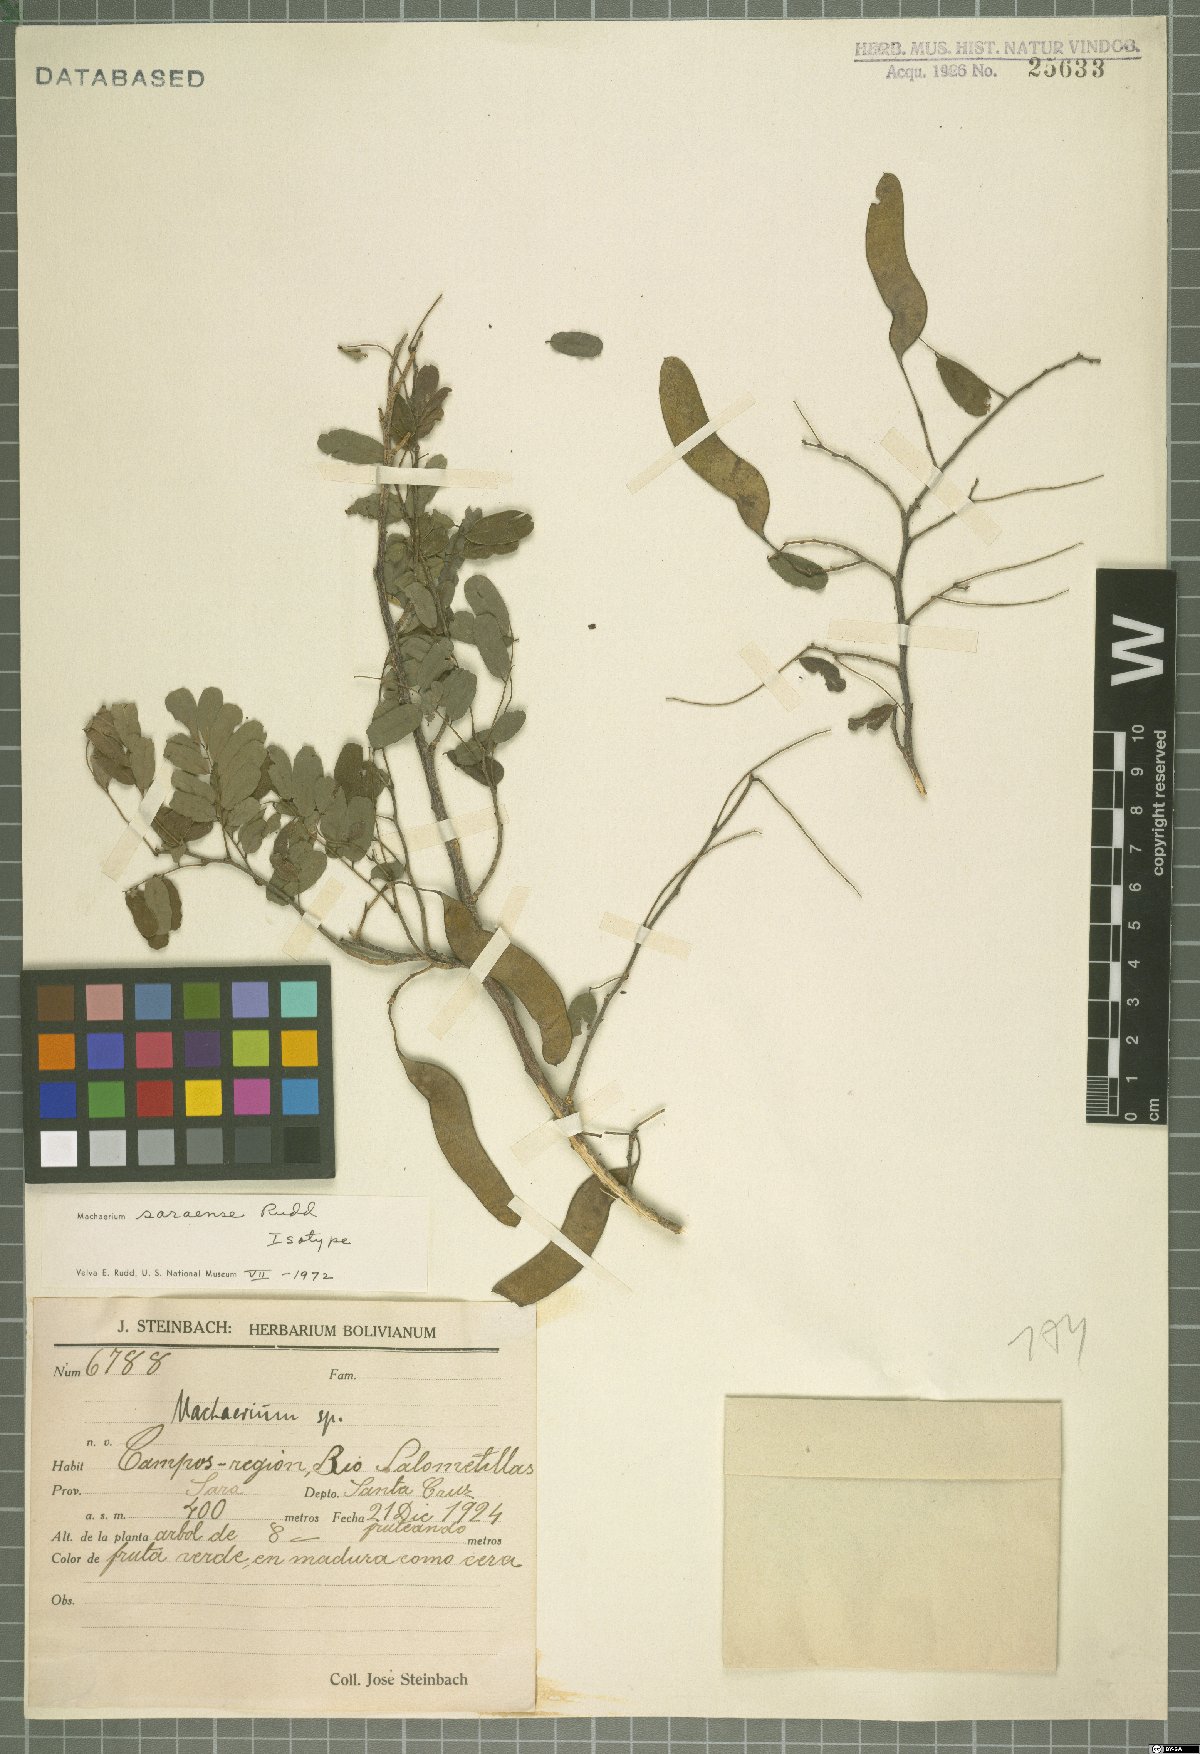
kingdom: Plantae
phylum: Tracheophyta
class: Magnoliopsida
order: Fabales
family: Fabaceae
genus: Steinbachiella
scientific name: Steinbachiella leptoclada
